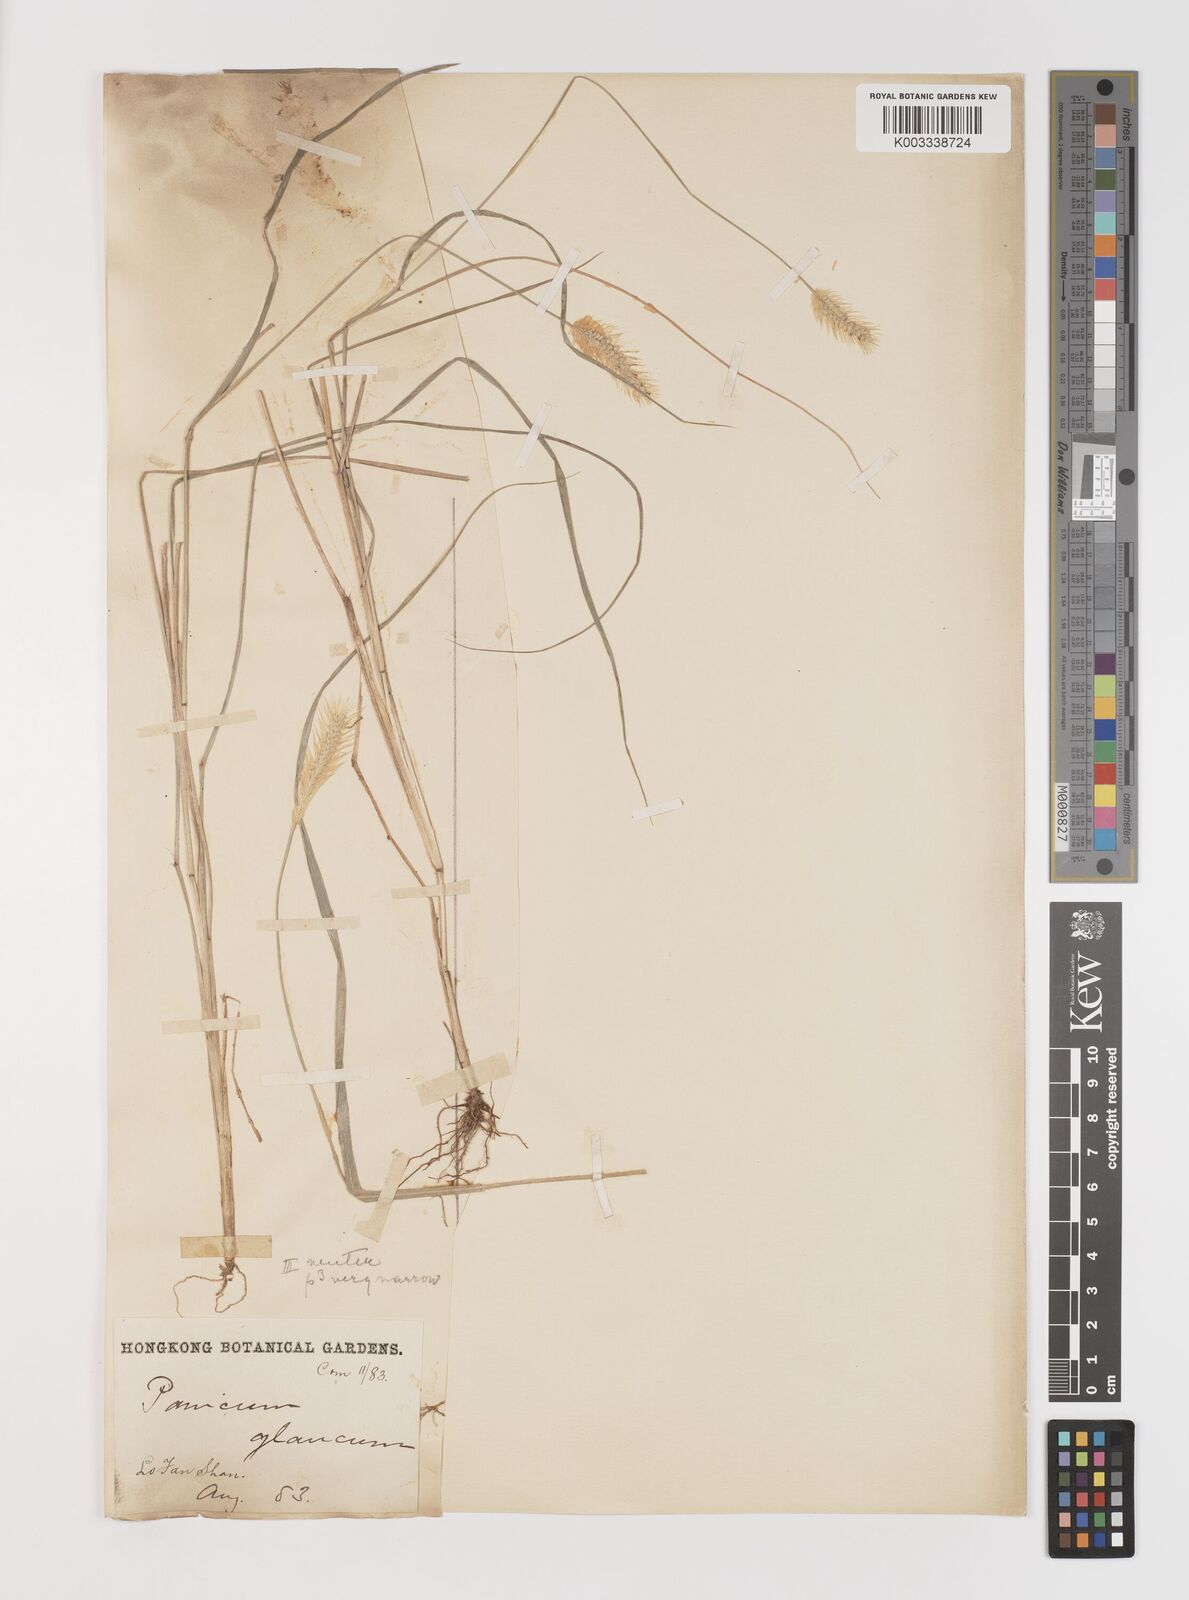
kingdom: Plantae
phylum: Tracheophyta
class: Liliopsida
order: Poales
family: Poaceae
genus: Setaria
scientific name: Setaria parviflora
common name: Knotroot bristle-grass
